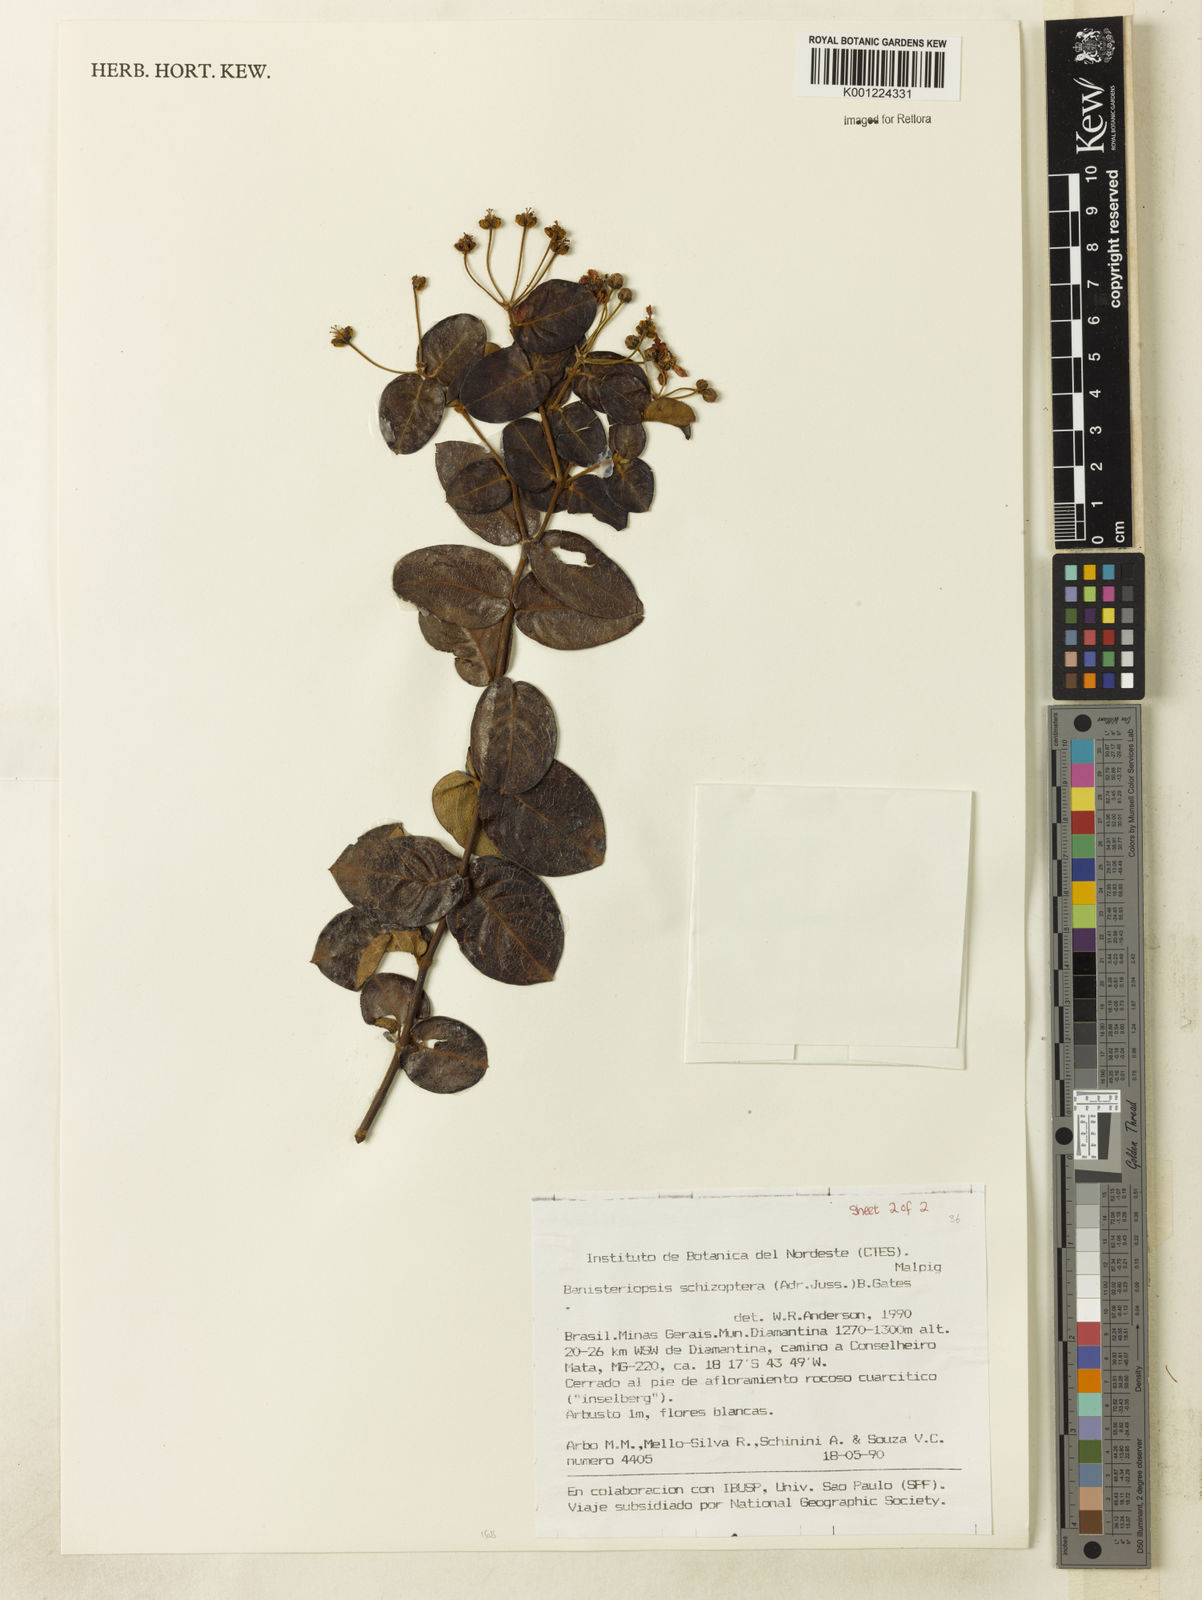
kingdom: Plantae
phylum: Tracheophyta
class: Magnoliopsida
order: Malpighiales
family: Malpighiaceae
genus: Banisteriopsis
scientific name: Banisteriopsis schizoptera
